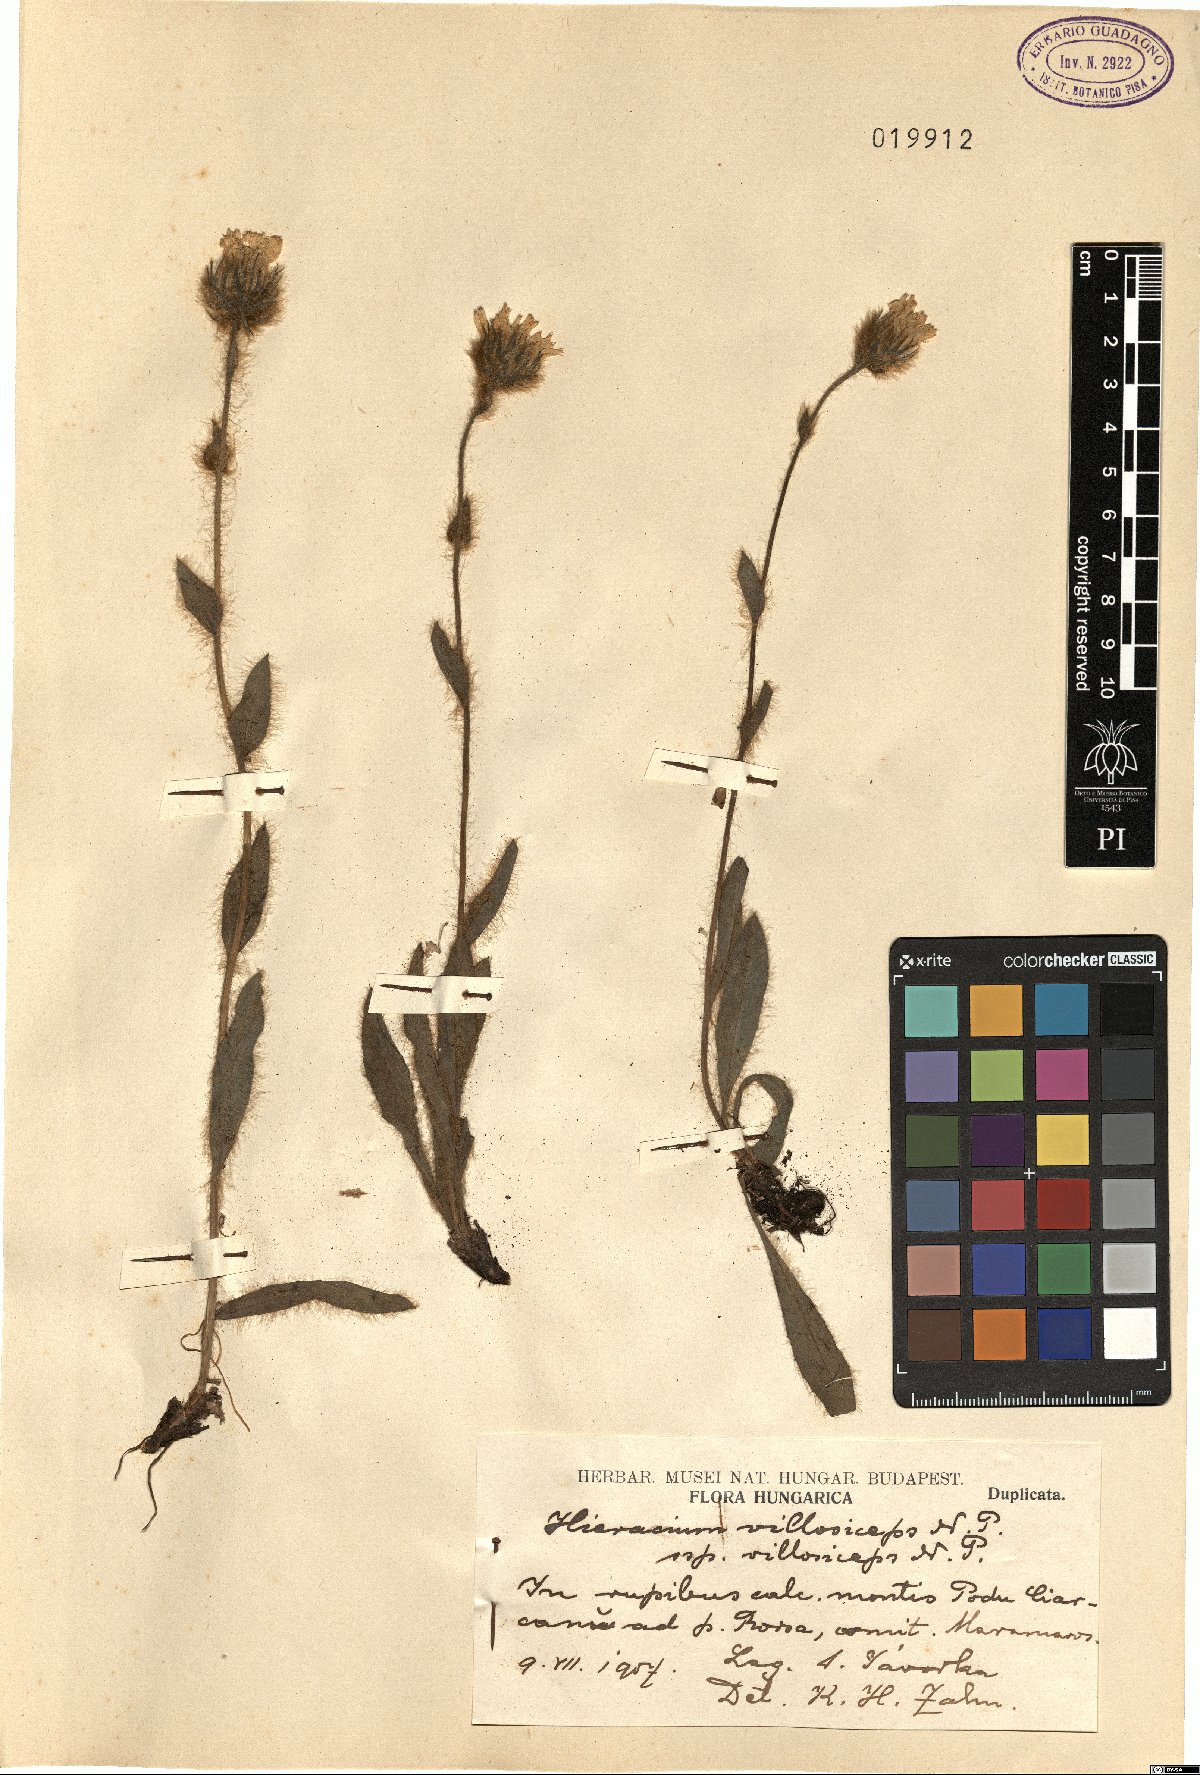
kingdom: Plantae
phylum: Tracheophyta
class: Magnoliopsida
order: Asterales
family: Asteraceae
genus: Hieracium
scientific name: Hieracium pilosum
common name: Fimbriate-pitted hawkweed
